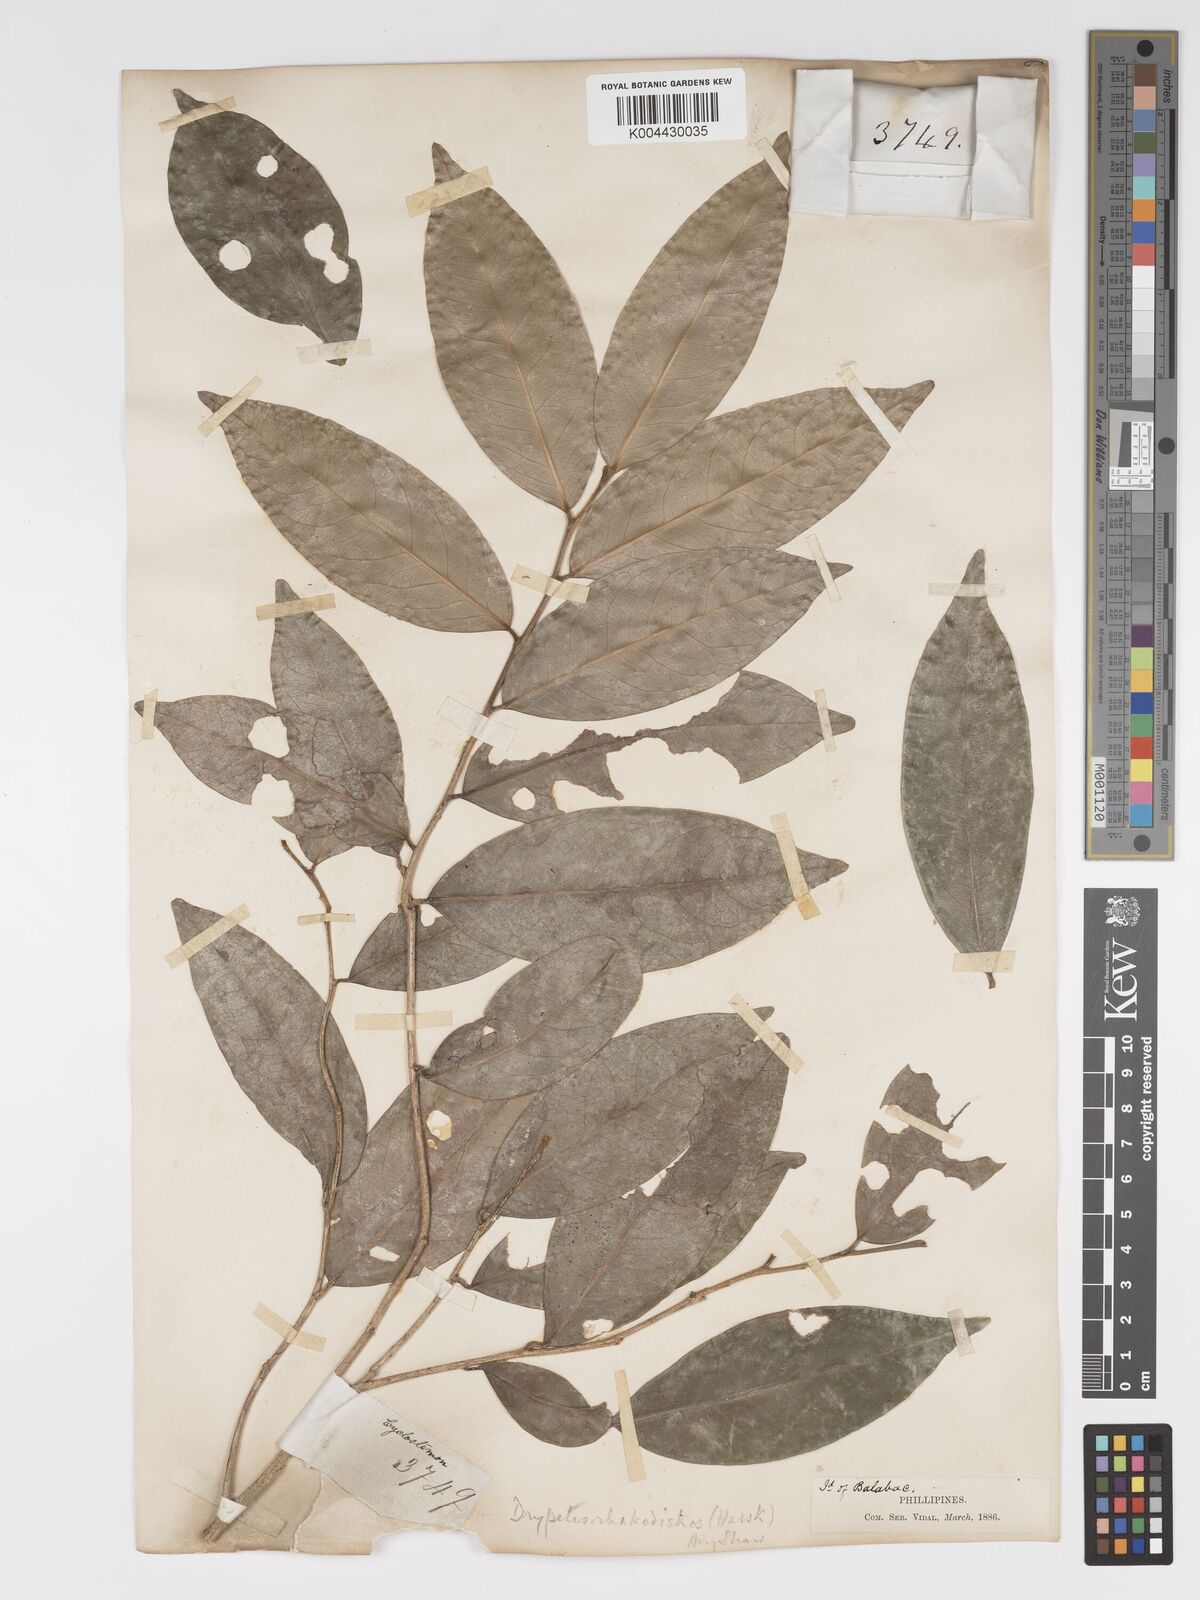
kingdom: Plantae
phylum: Tracheophyta
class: Magnoliopsida
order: Malpighiales
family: Putranjivaceae
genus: Drypetes
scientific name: Drypetes rhakodiskos
